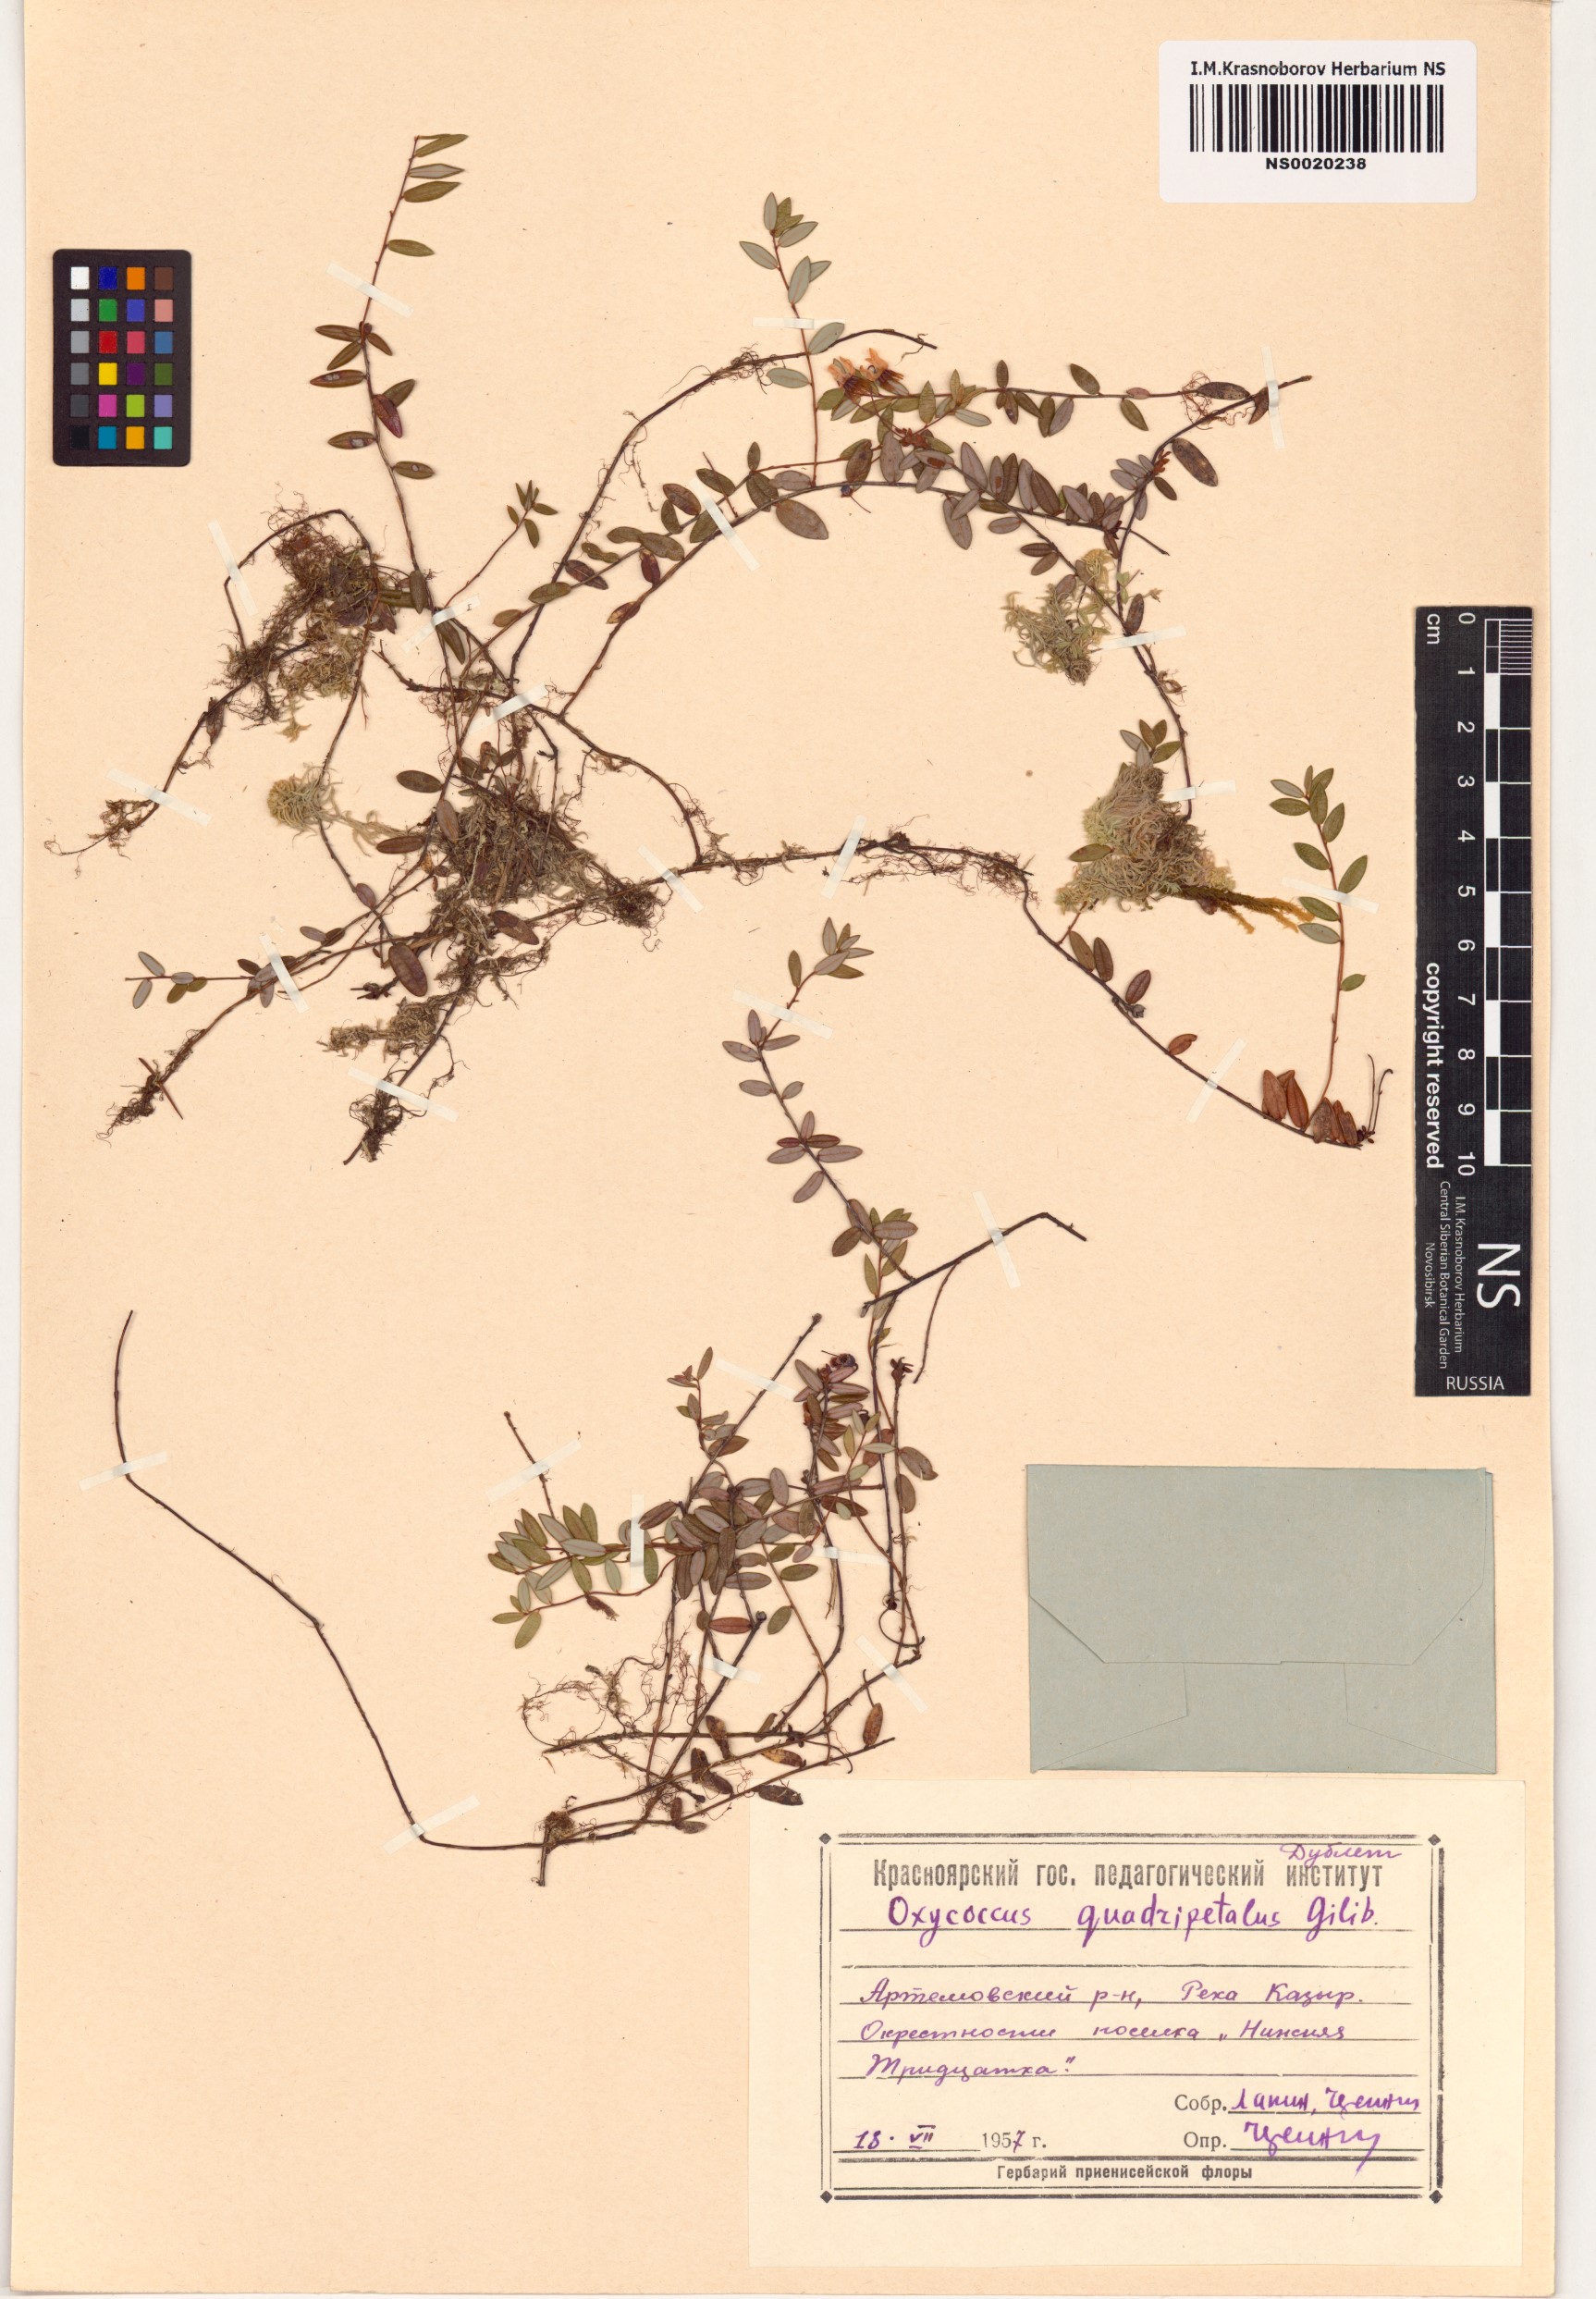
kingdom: Plantae
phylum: Tracheophyta
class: Magnoliopsida
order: Ericales
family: Ericaceae
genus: Vaccinium
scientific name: Vaccinium oxycoccos
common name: Cranberry
